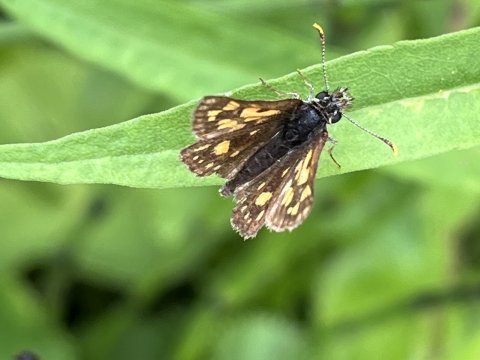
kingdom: Animalia
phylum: Arthropoda
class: Insecta
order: Lepidoptera
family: Hesperiidae
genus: Carterocephalus
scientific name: Carterocephalus
